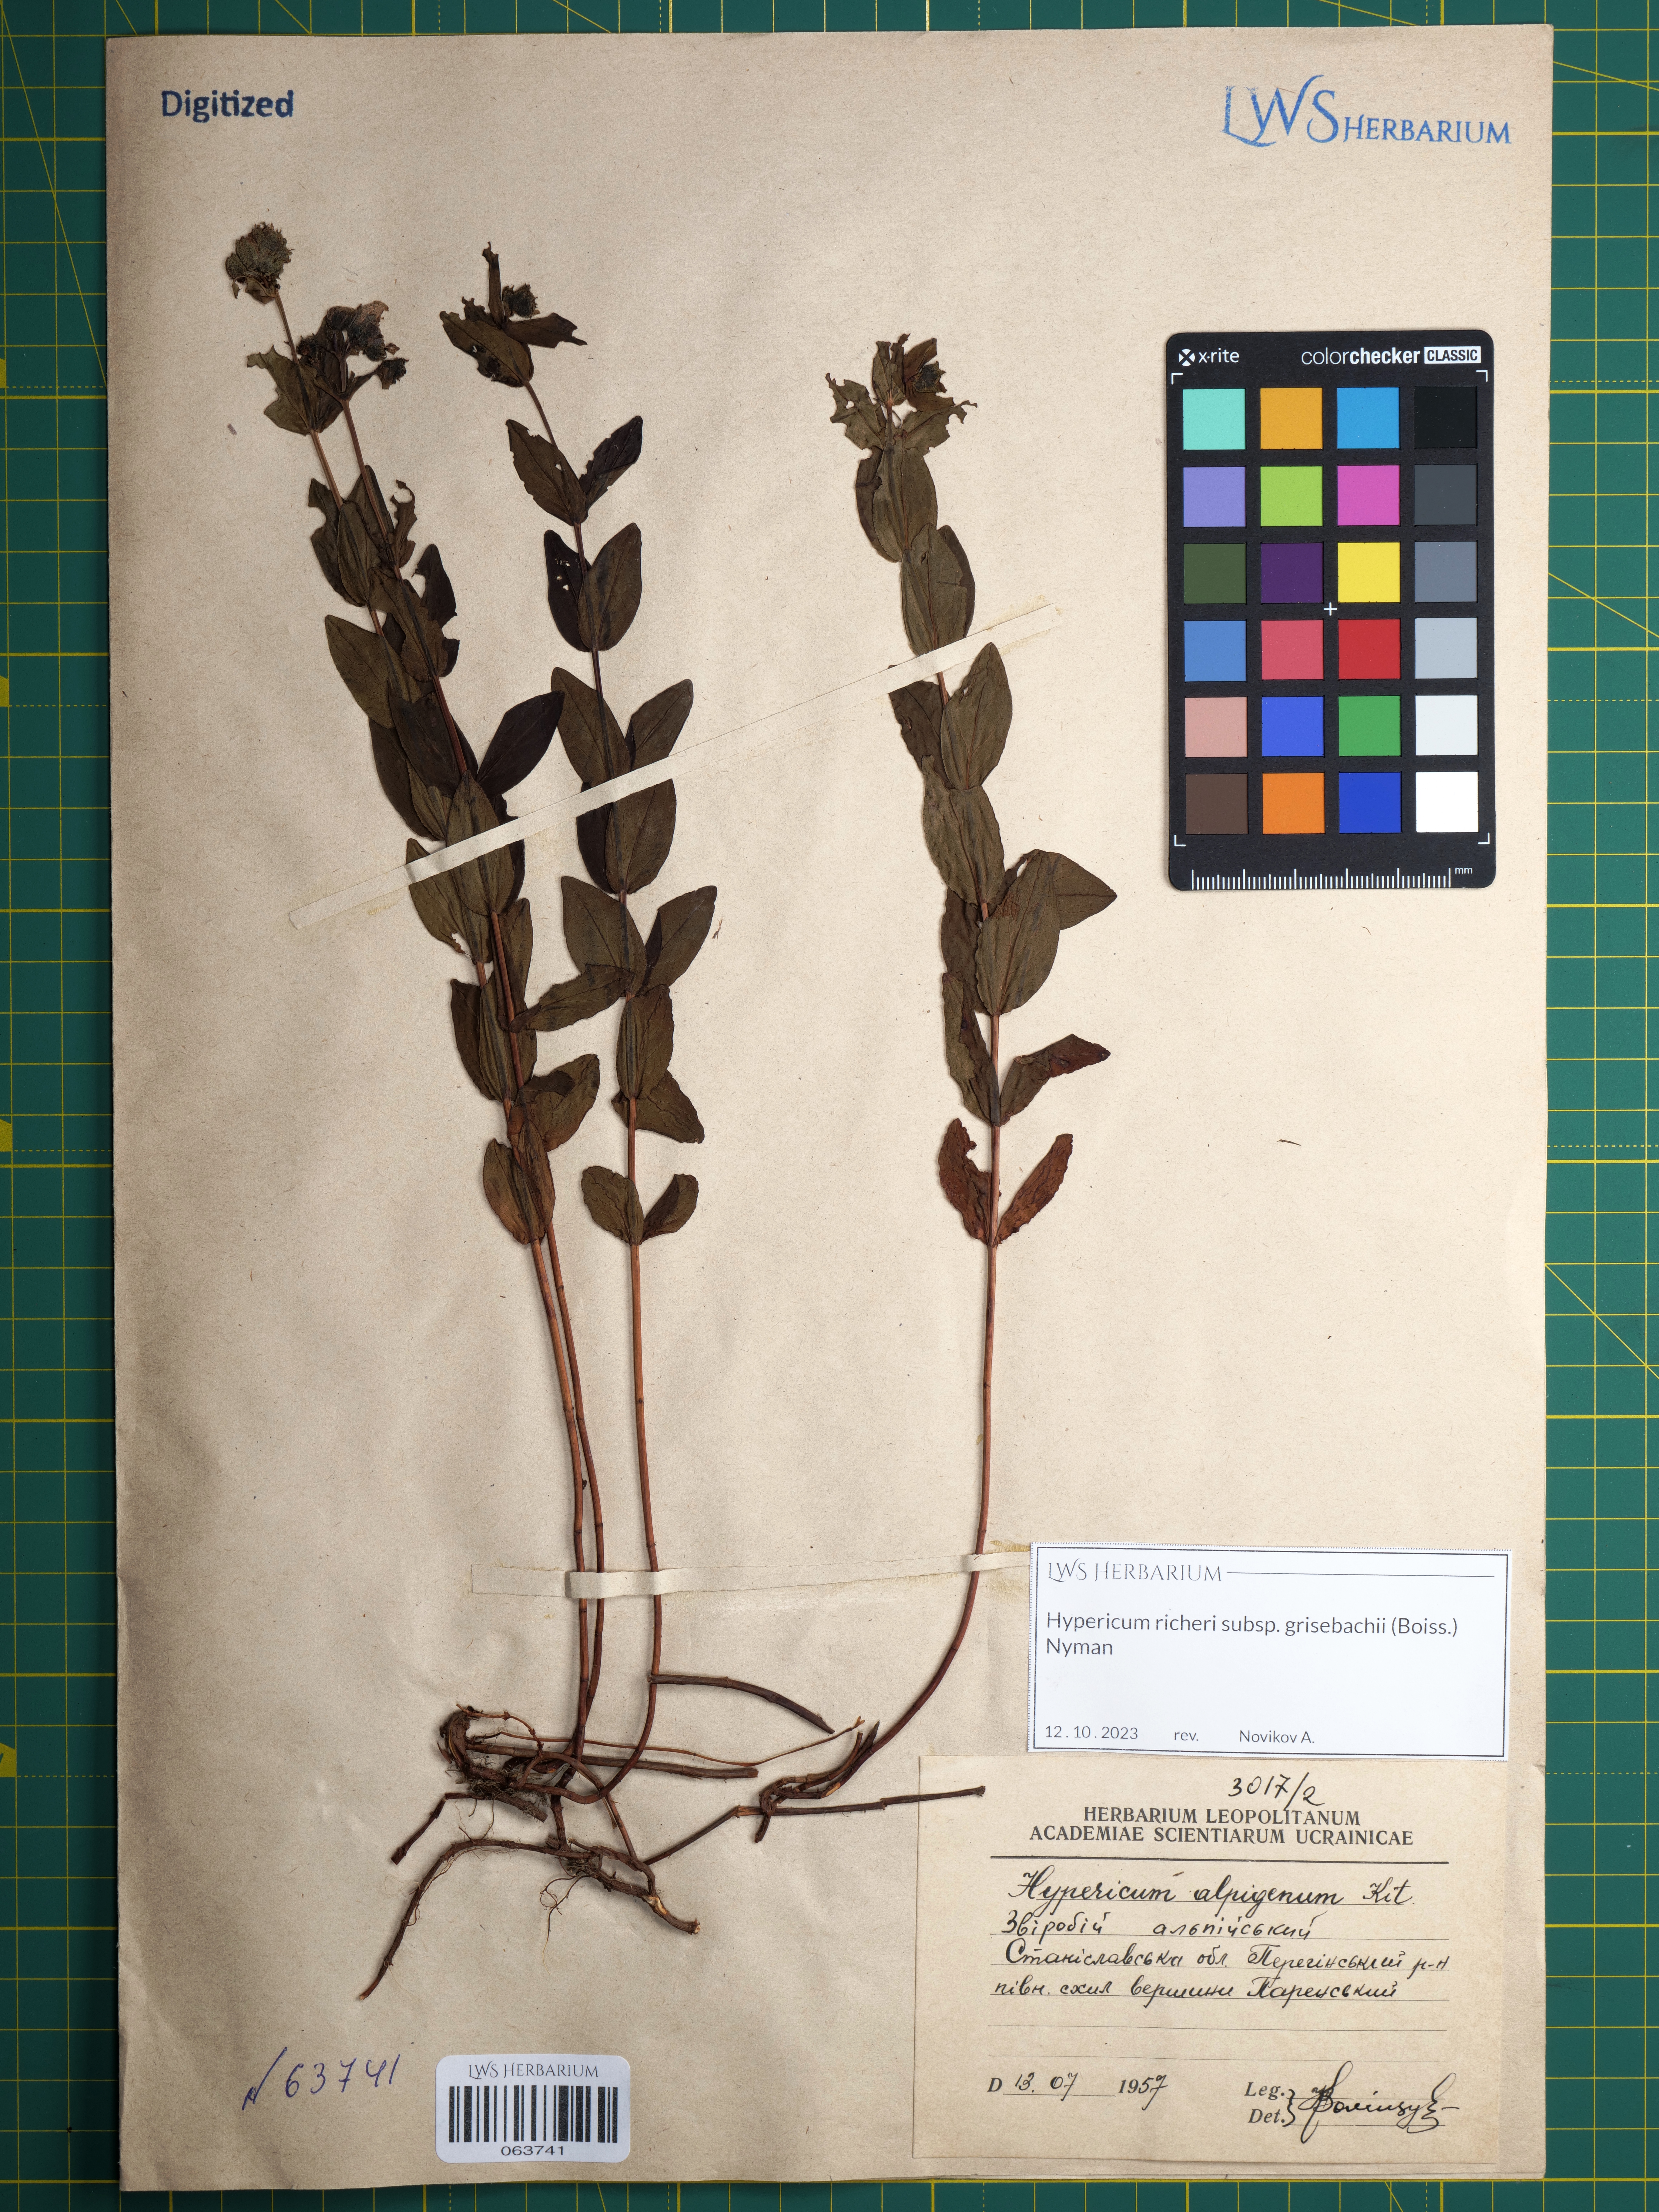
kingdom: Plantae
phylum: Tracheophyta
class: Magnoliopsida
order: Malpighiales
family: Hypericaceae
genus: Hypericum
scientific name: Hypericum richeri
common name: Alpine st john's-wort
